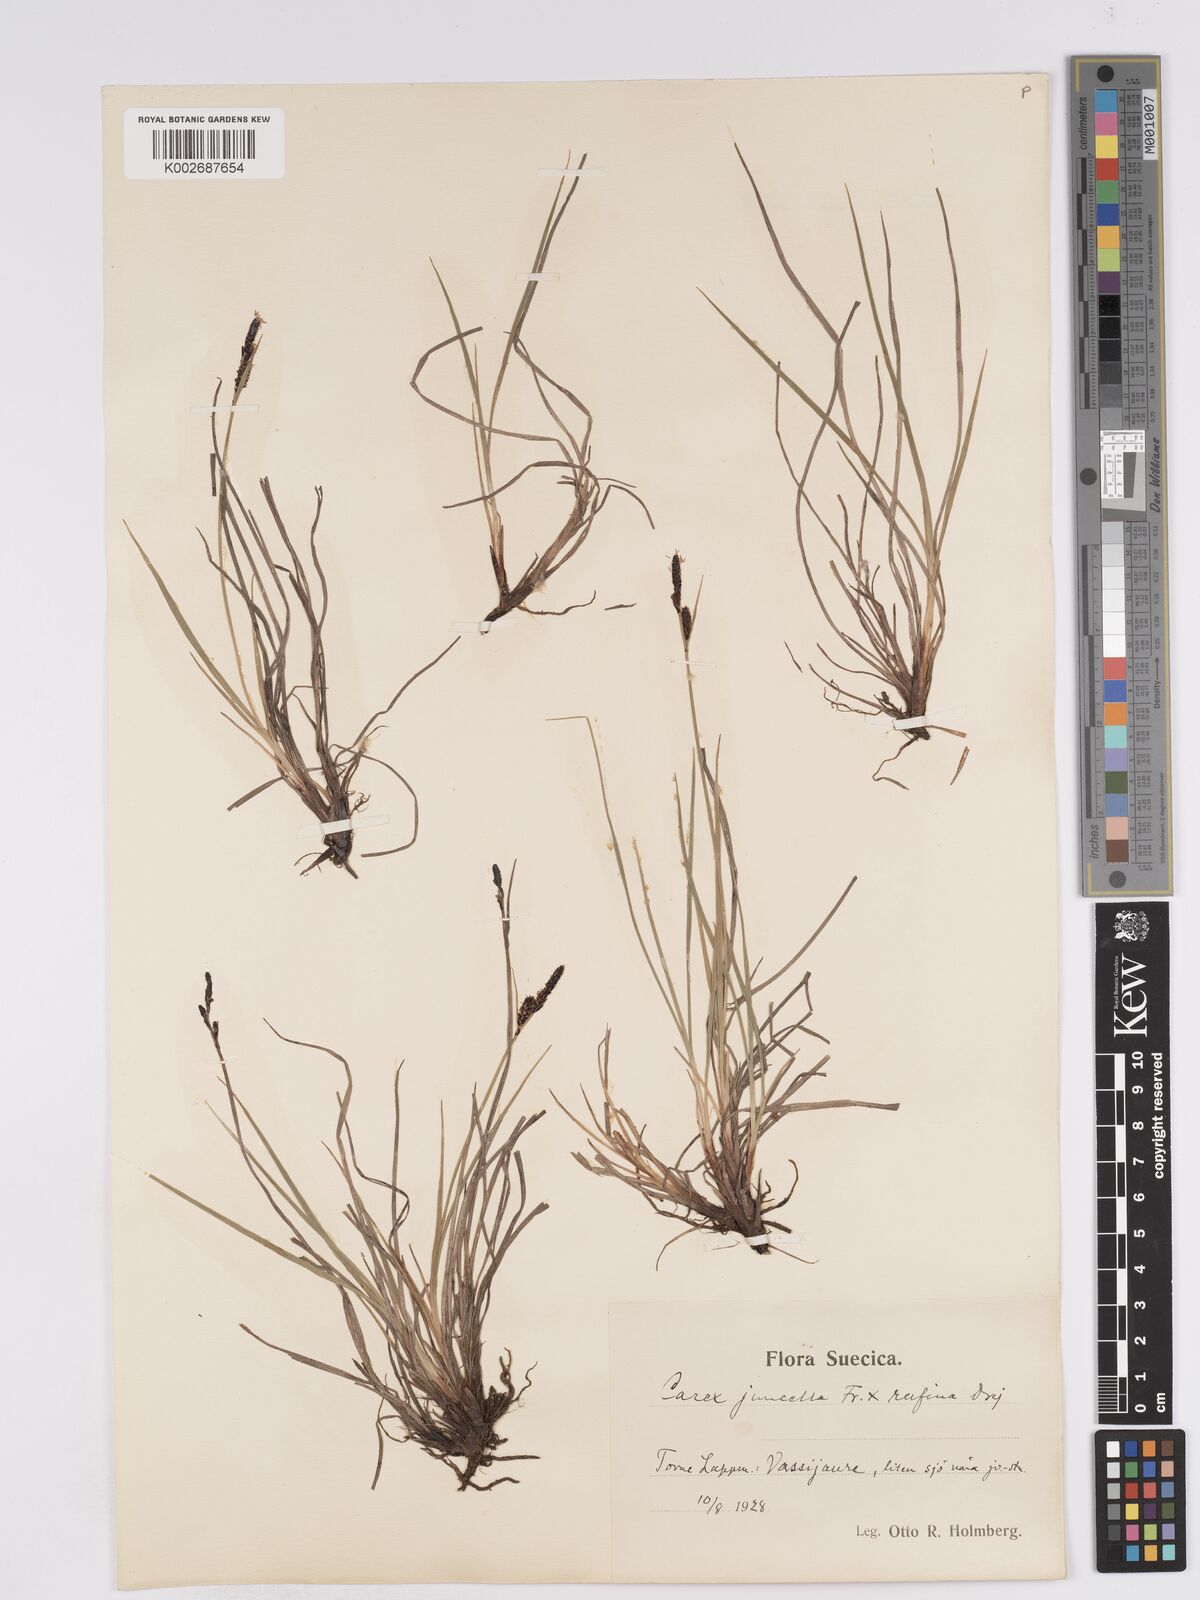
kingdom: Plantae
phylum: Tracheophyta
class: Liliopsida
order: Poales
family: Cyperaceae
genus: Carex
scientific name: Carex
